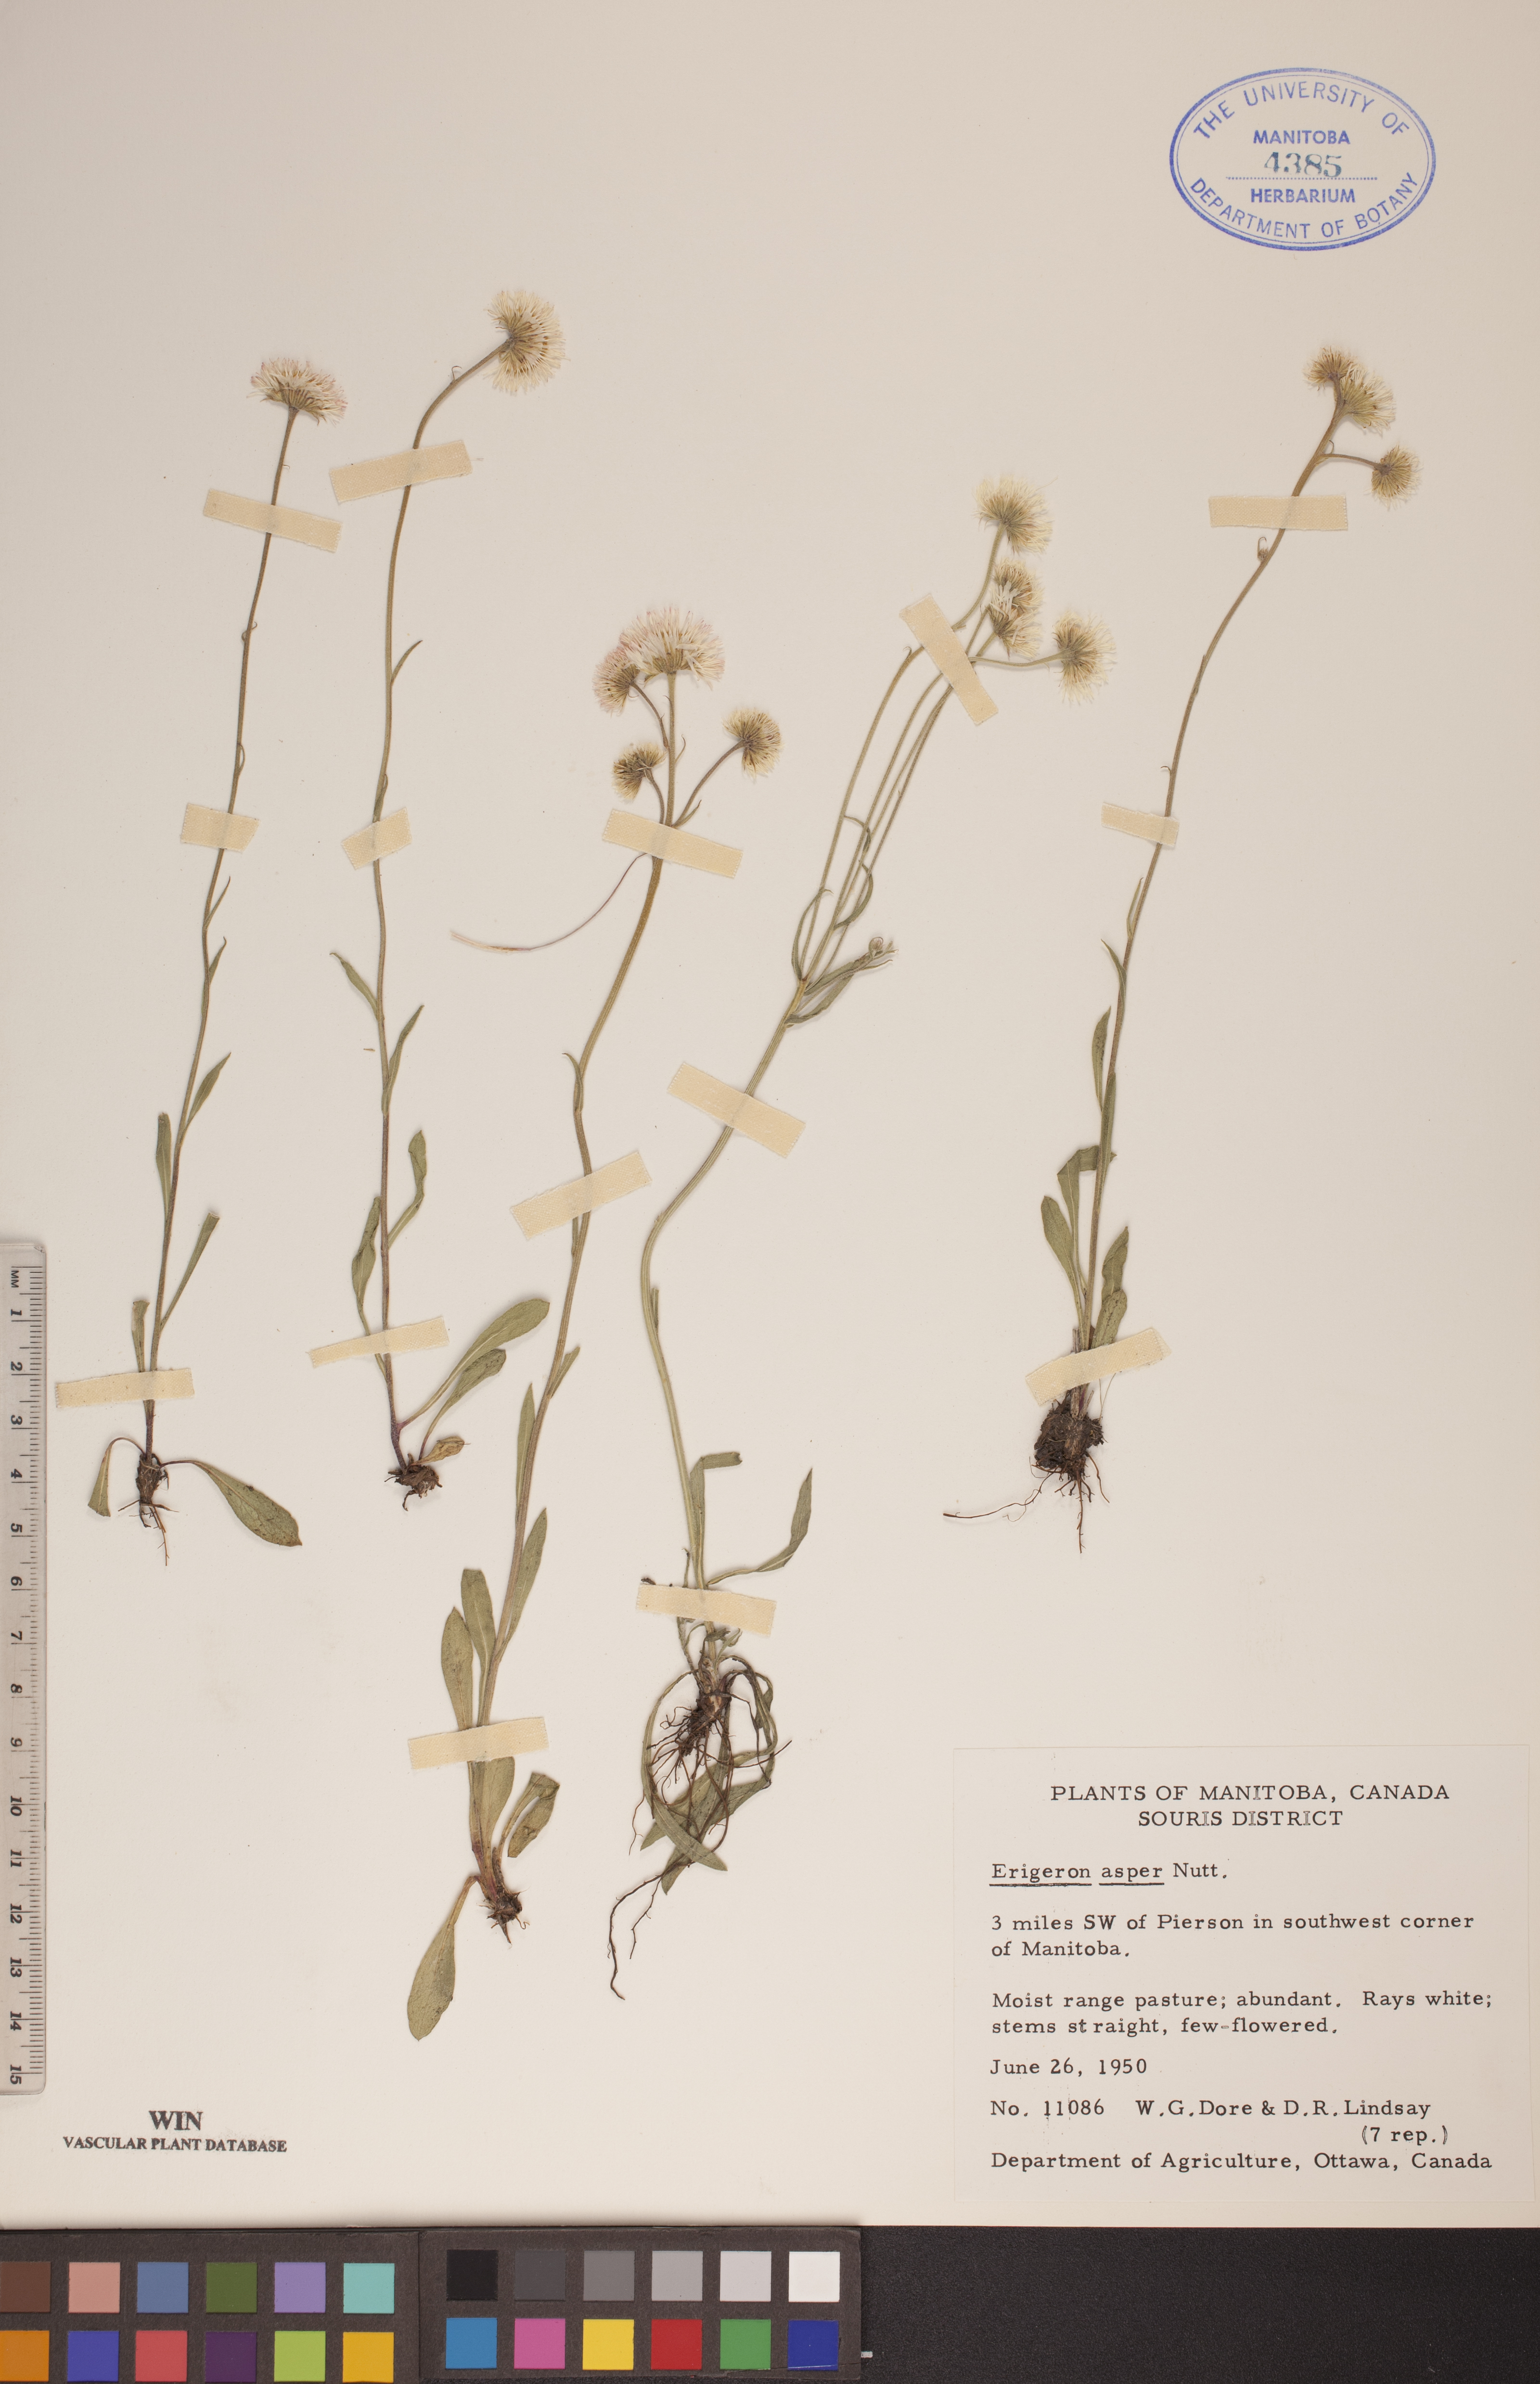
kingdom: Plantae
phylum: Tracheophyta
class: Magnoliopsida
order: Asterales
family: Asteraceae
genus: Erigeron
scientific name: Erigeron glabellus
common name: Smooth fleabane
